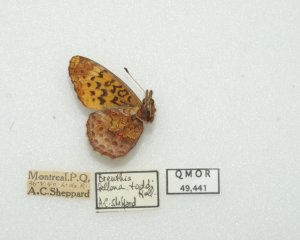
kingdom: Animalia
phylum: Arthropoda
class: Insecta
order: Lepidoptera
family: Nymphalidae
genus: Clossiana
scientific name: Clossiana toddi
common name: Meadow Fritillary
